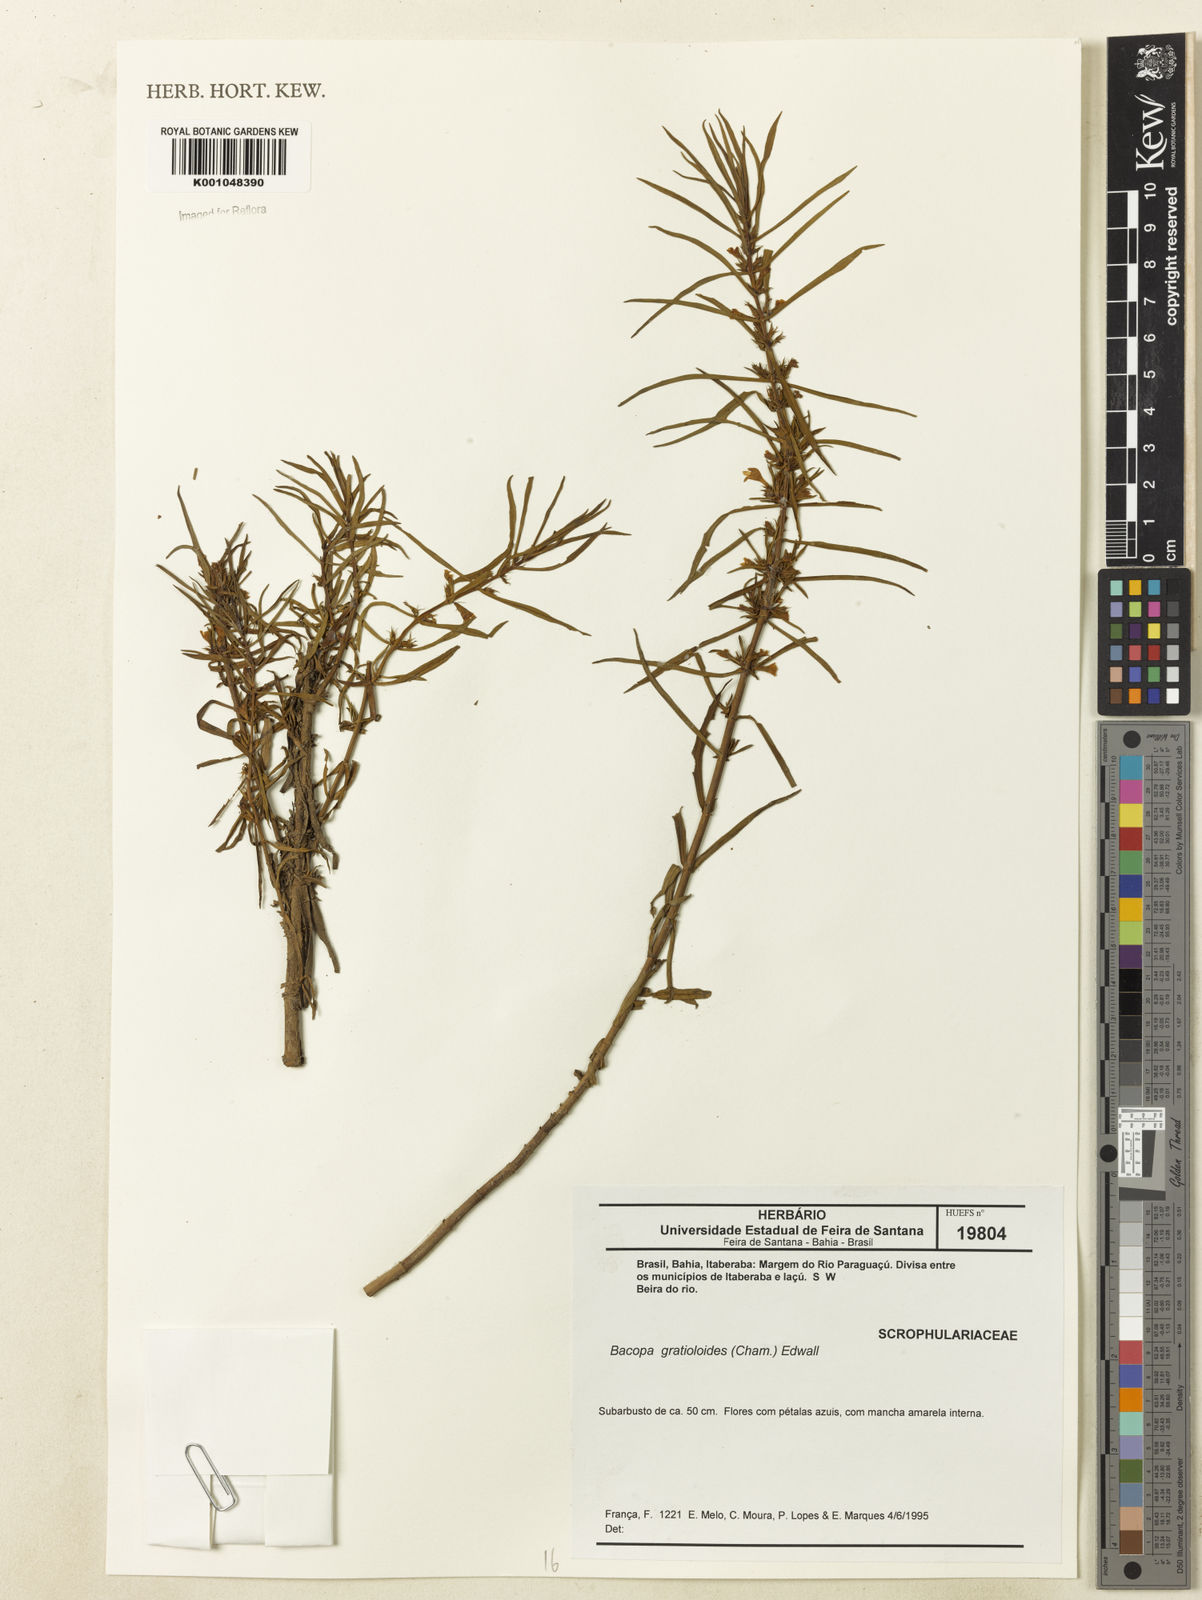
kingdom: Plantae
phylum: Tracheophyta
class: Magnoliopsida
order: Lamiales
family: Plantaginaceae
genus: Bacopa
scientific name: Bacopa
